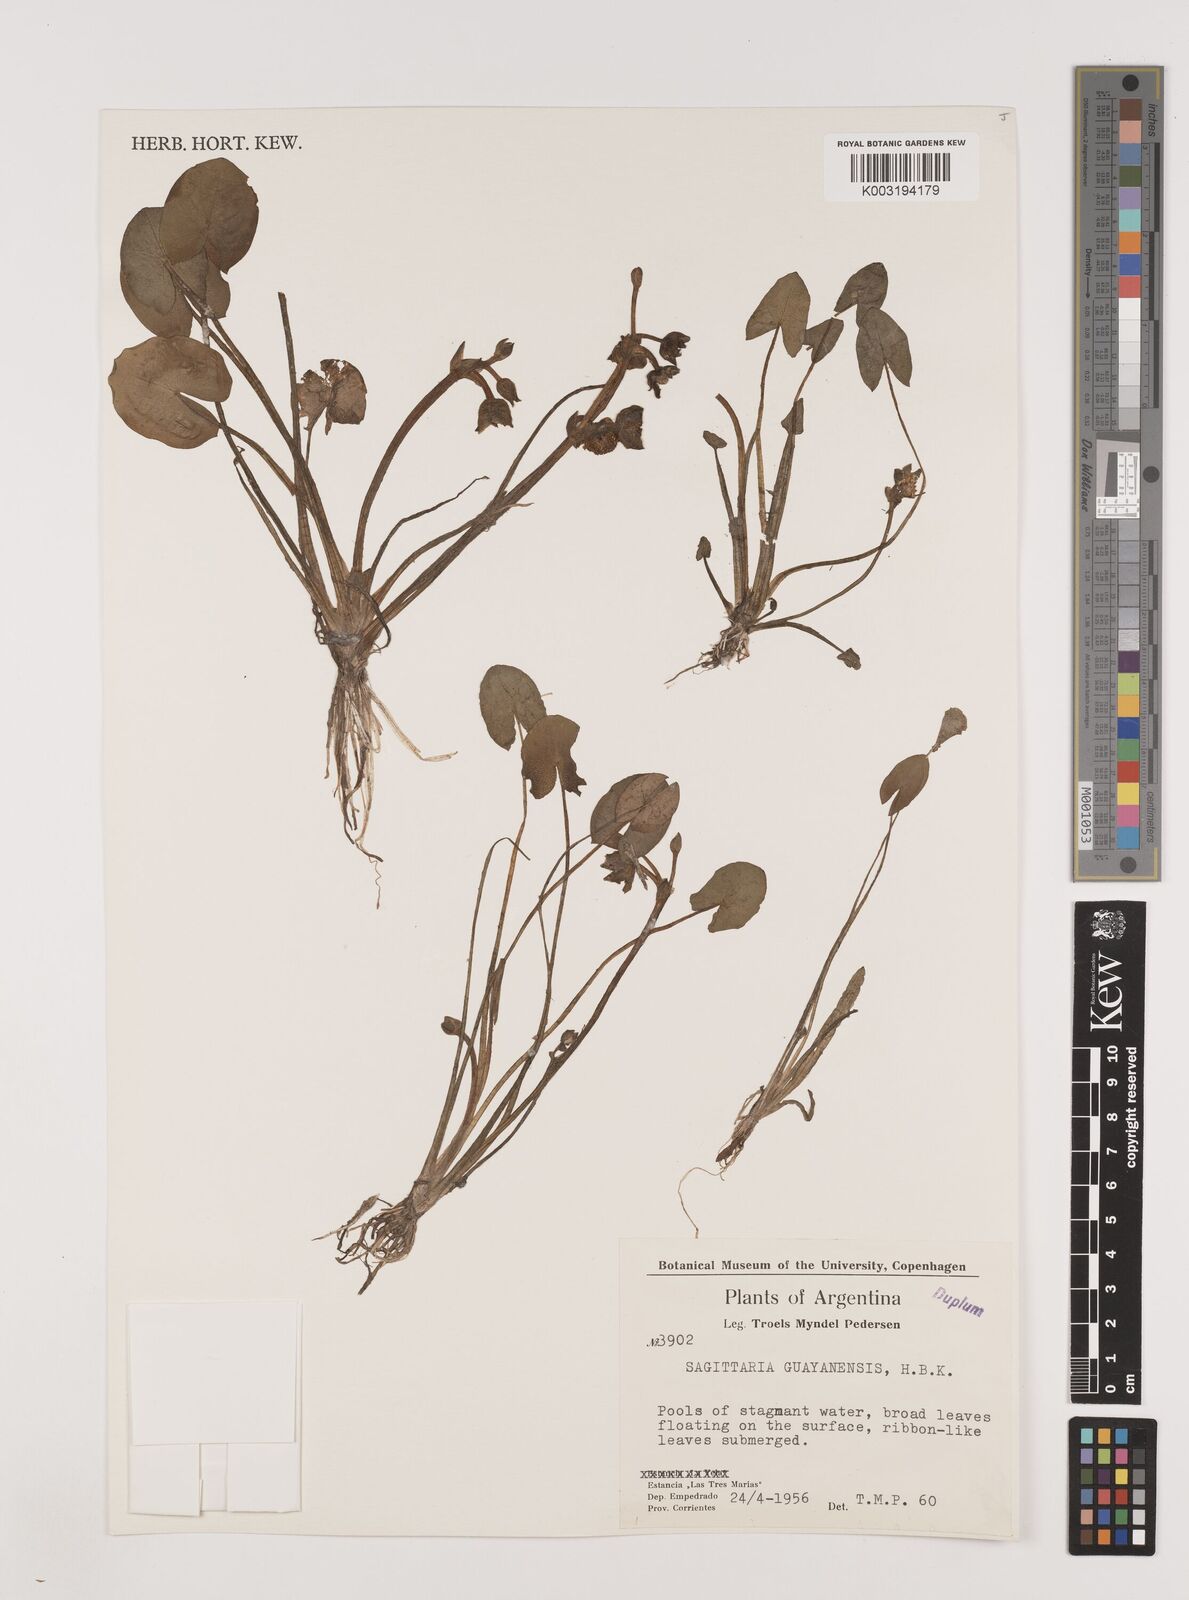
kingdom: Plantae
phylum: Tracheophyta
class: Liliopsida
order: Alismatales
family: Alismataceae
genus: Sagittaria
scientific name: Sagittaria guayanensis
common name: Guyanese arrowhead
